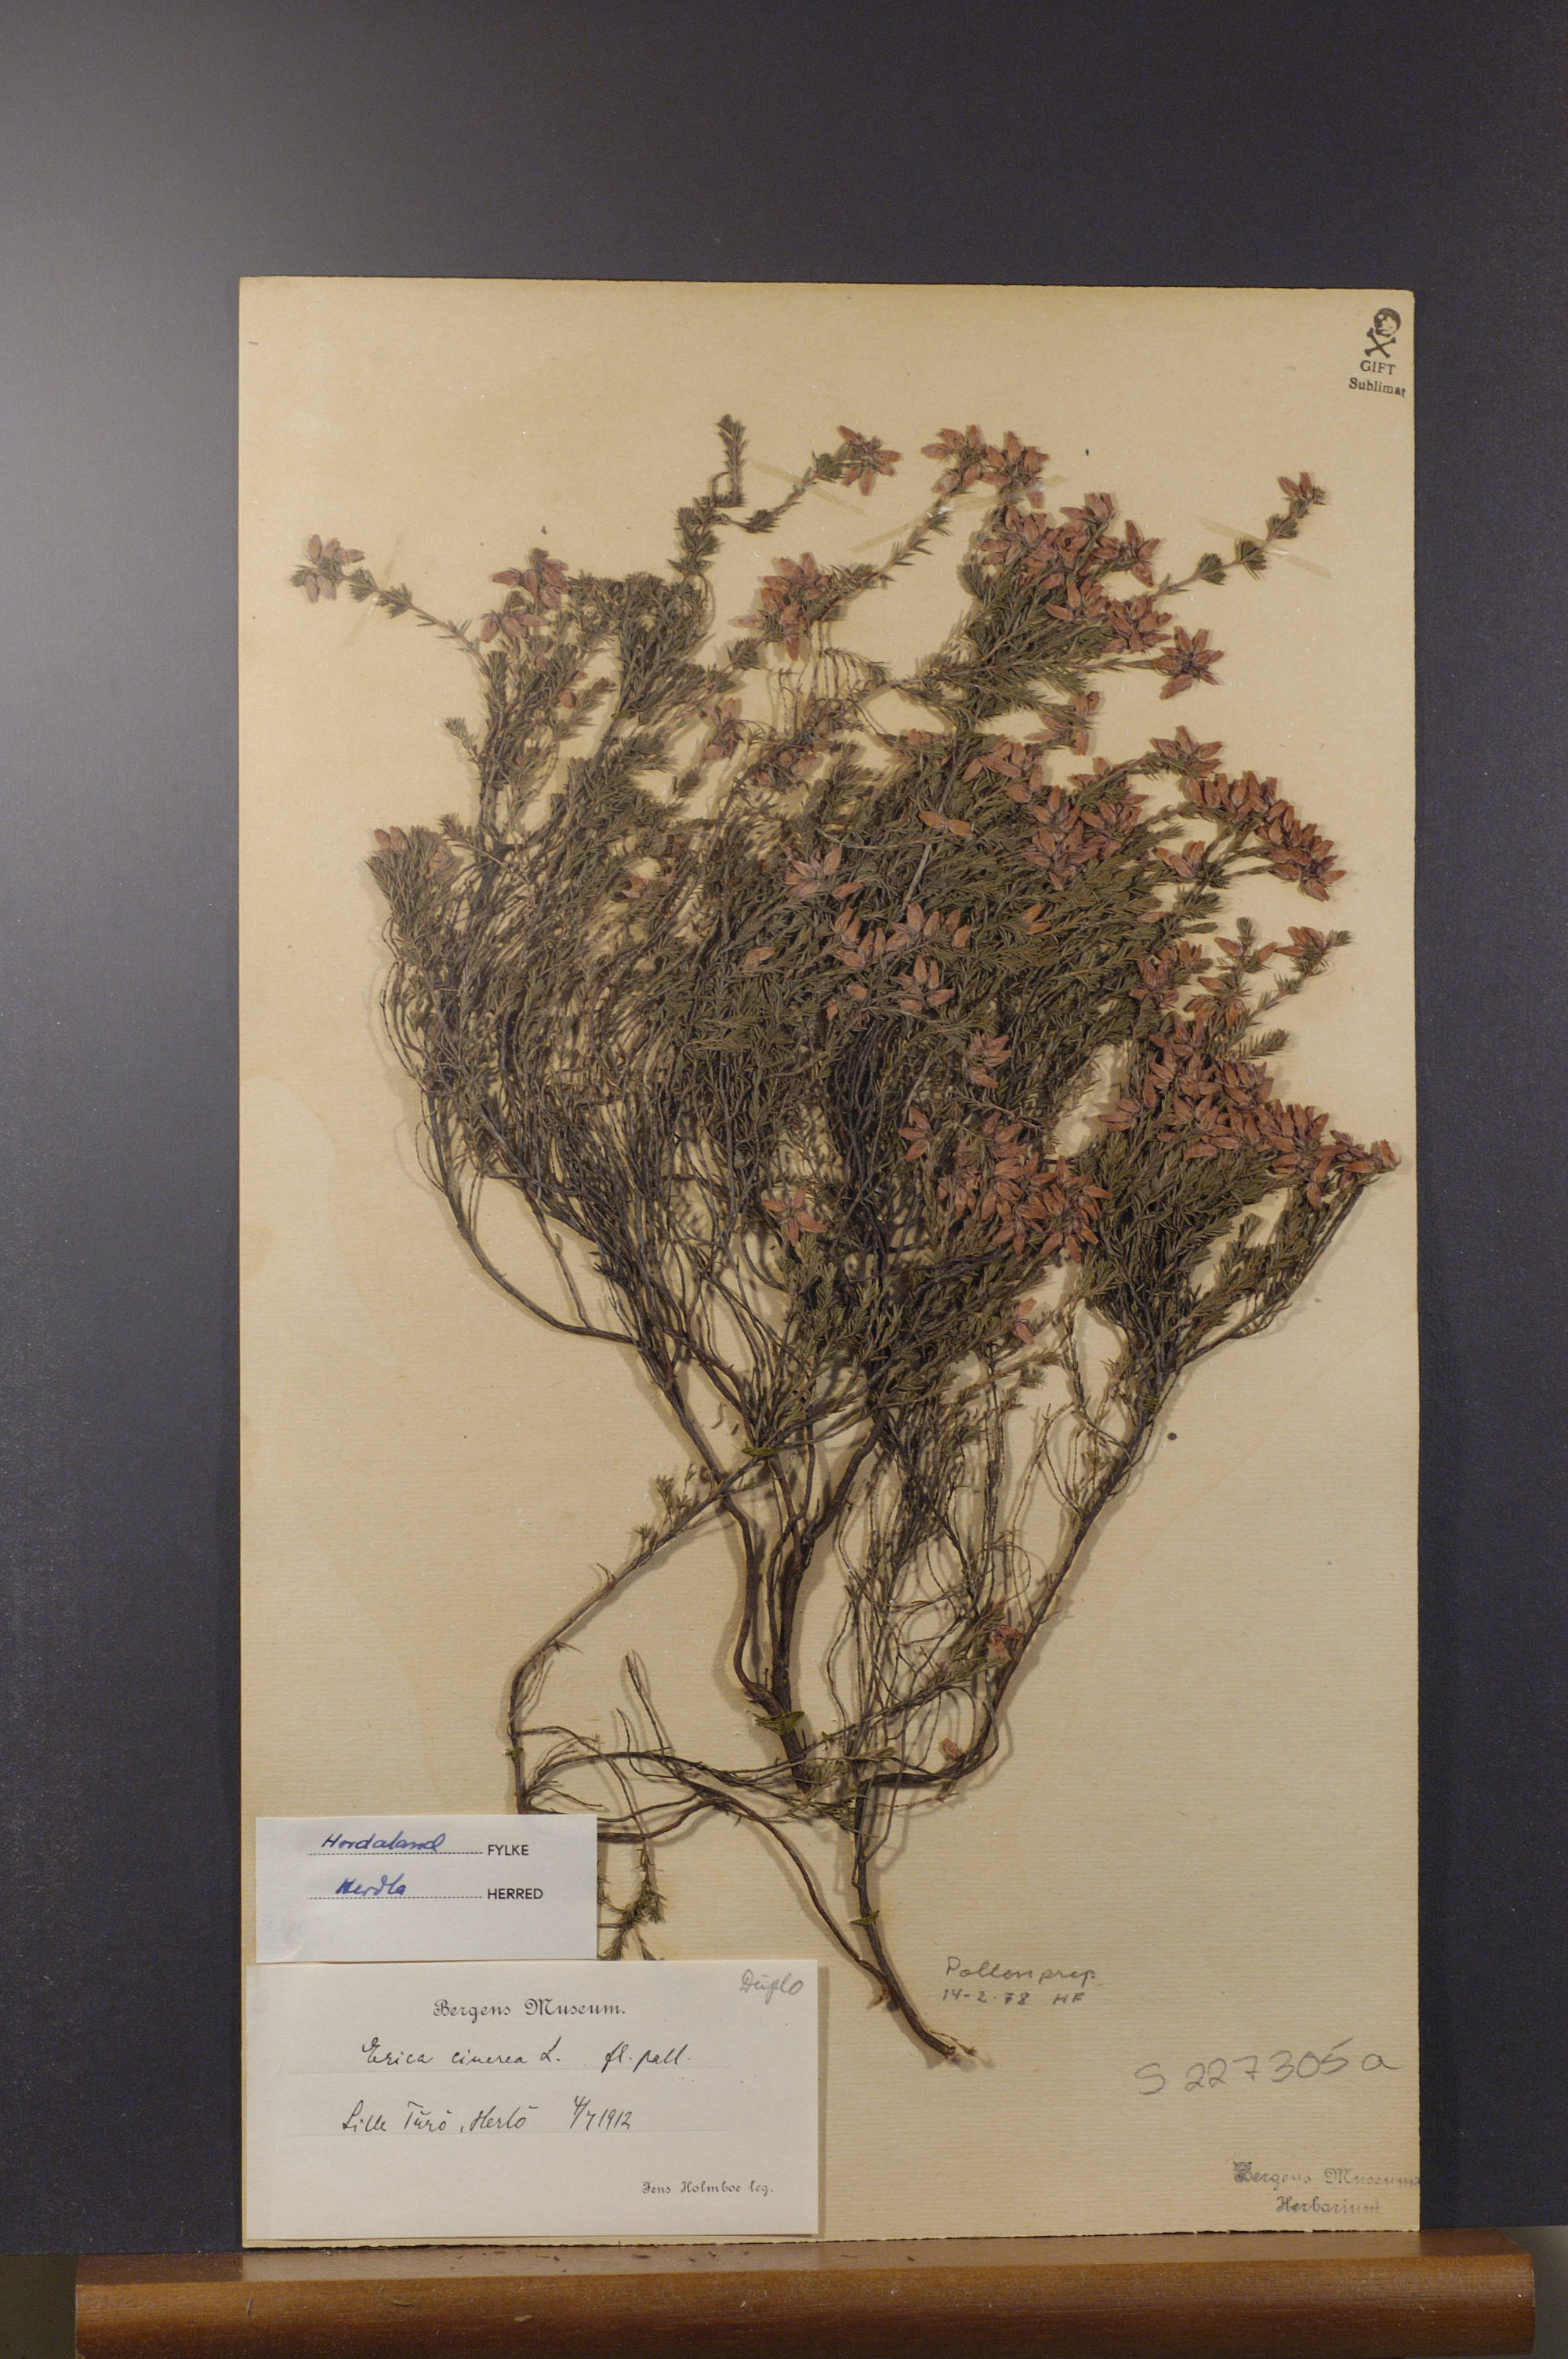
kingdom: Plantae
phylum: Tracheophyta
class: Magnoliopsida
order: Ericales
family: Ericaceae
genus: Erica
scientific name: Erica cinerea
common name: Bell heather
